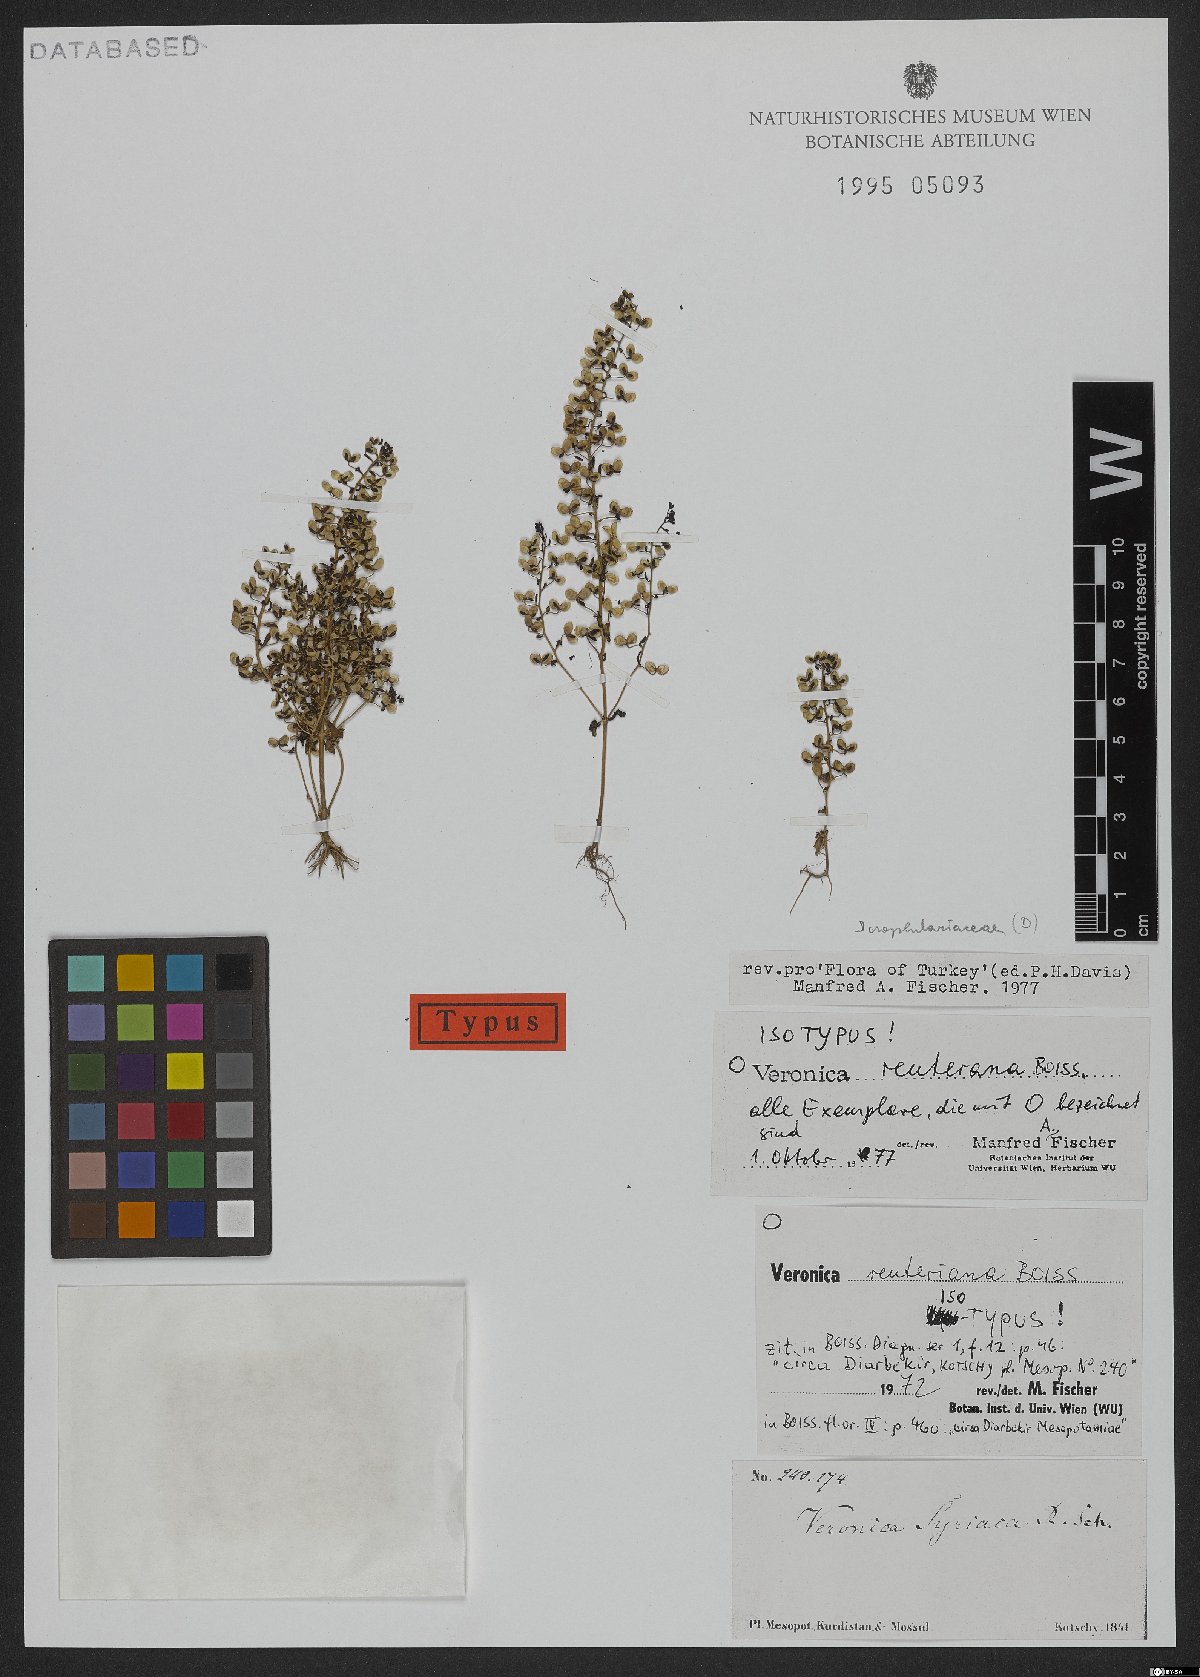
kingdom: Plantae
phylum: Tracheophyta
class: Magnoliopsida
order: Lamiales
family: Plantaginaceae
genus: Veronica
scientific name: Veronica reuteriana
